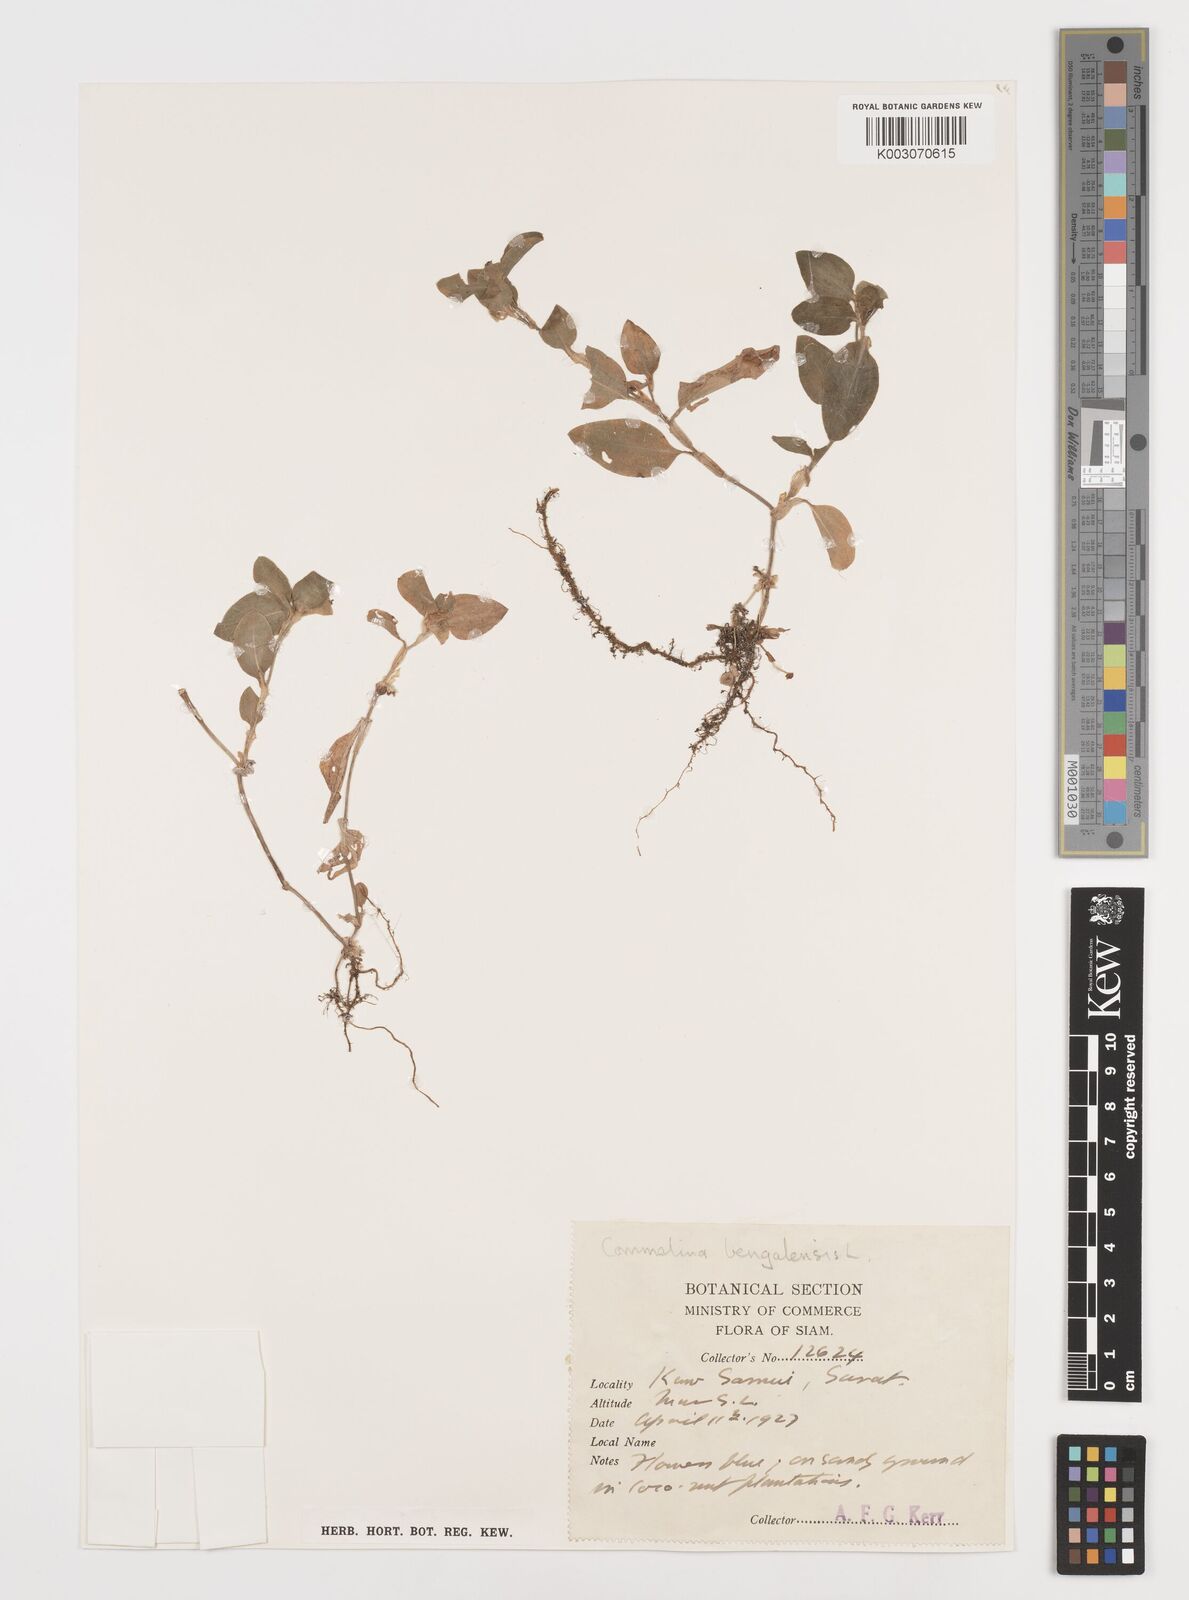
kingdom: Plantae
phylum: Tracheophyta
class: Liliopsida
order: Commelinales
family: Commelinaceae
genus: Commelina
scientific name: Commelina benghalensis
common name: Jio
